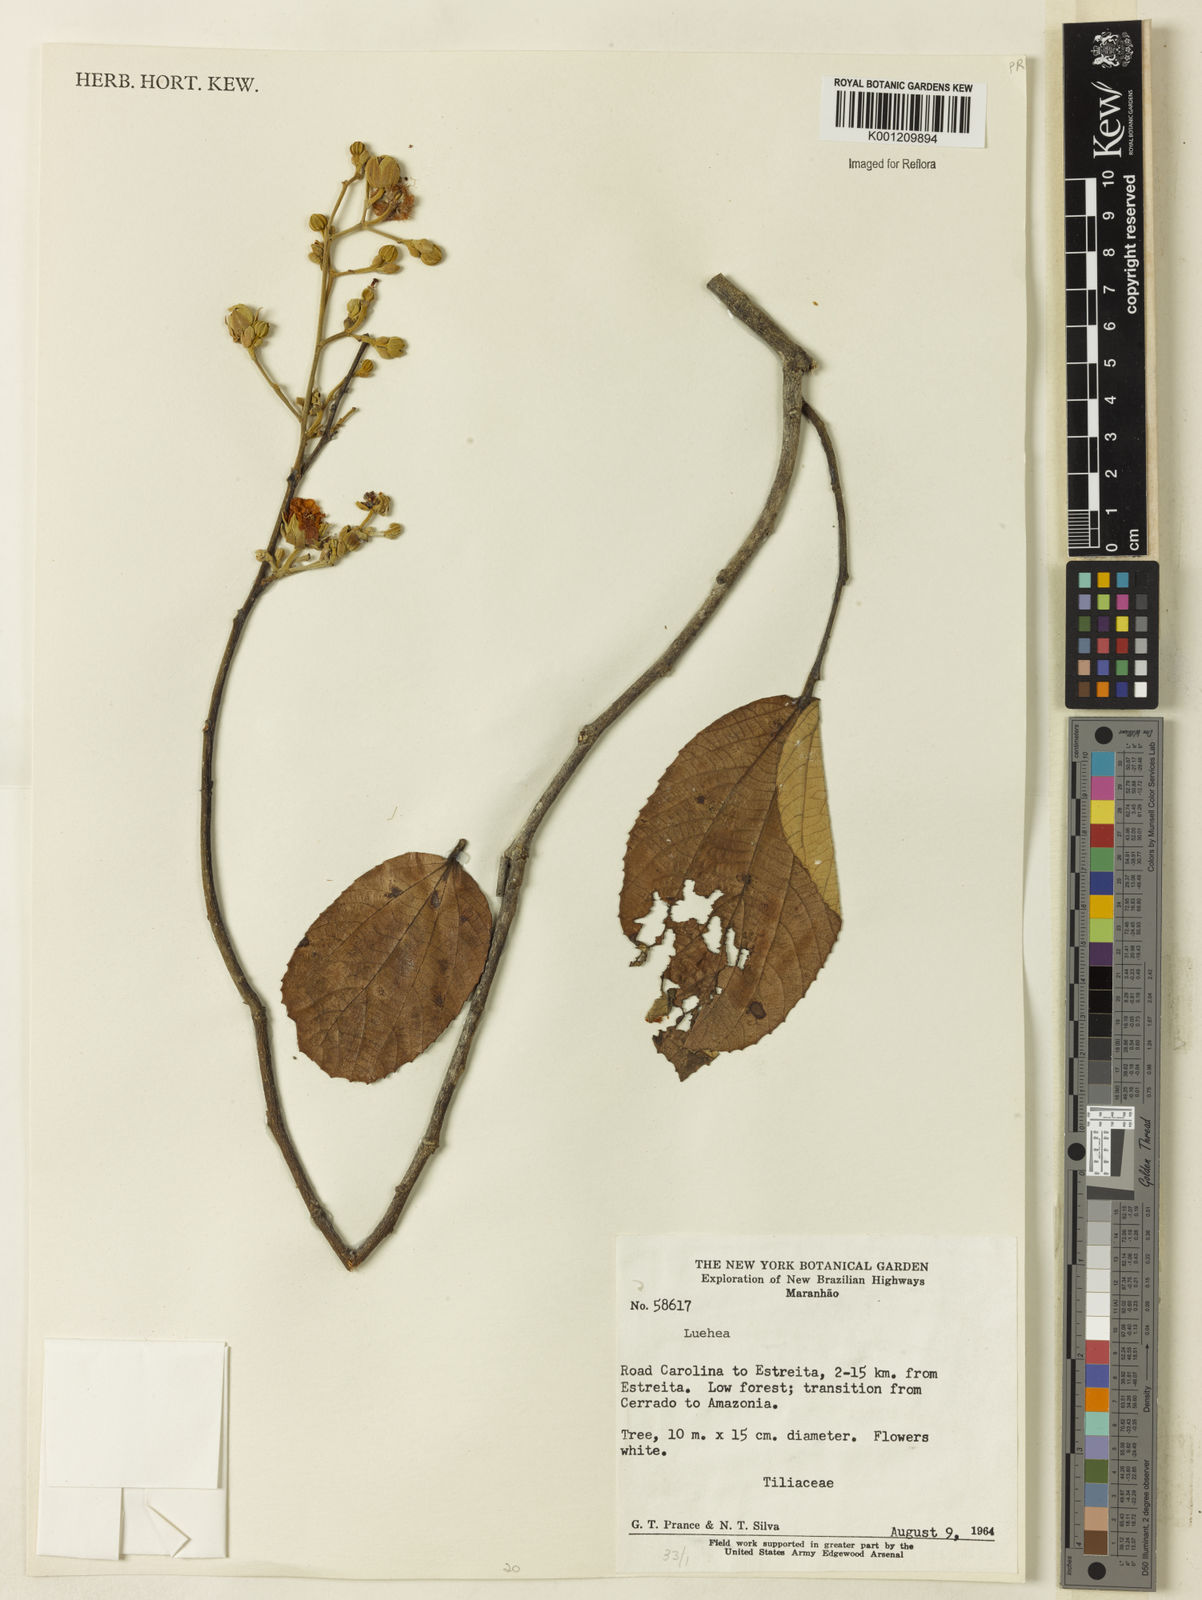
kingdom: Plantae
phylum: Tracheophyta
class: Magnoliopsida
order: Malvales
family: Malvaceae
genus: Luehea
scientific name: Luehea
